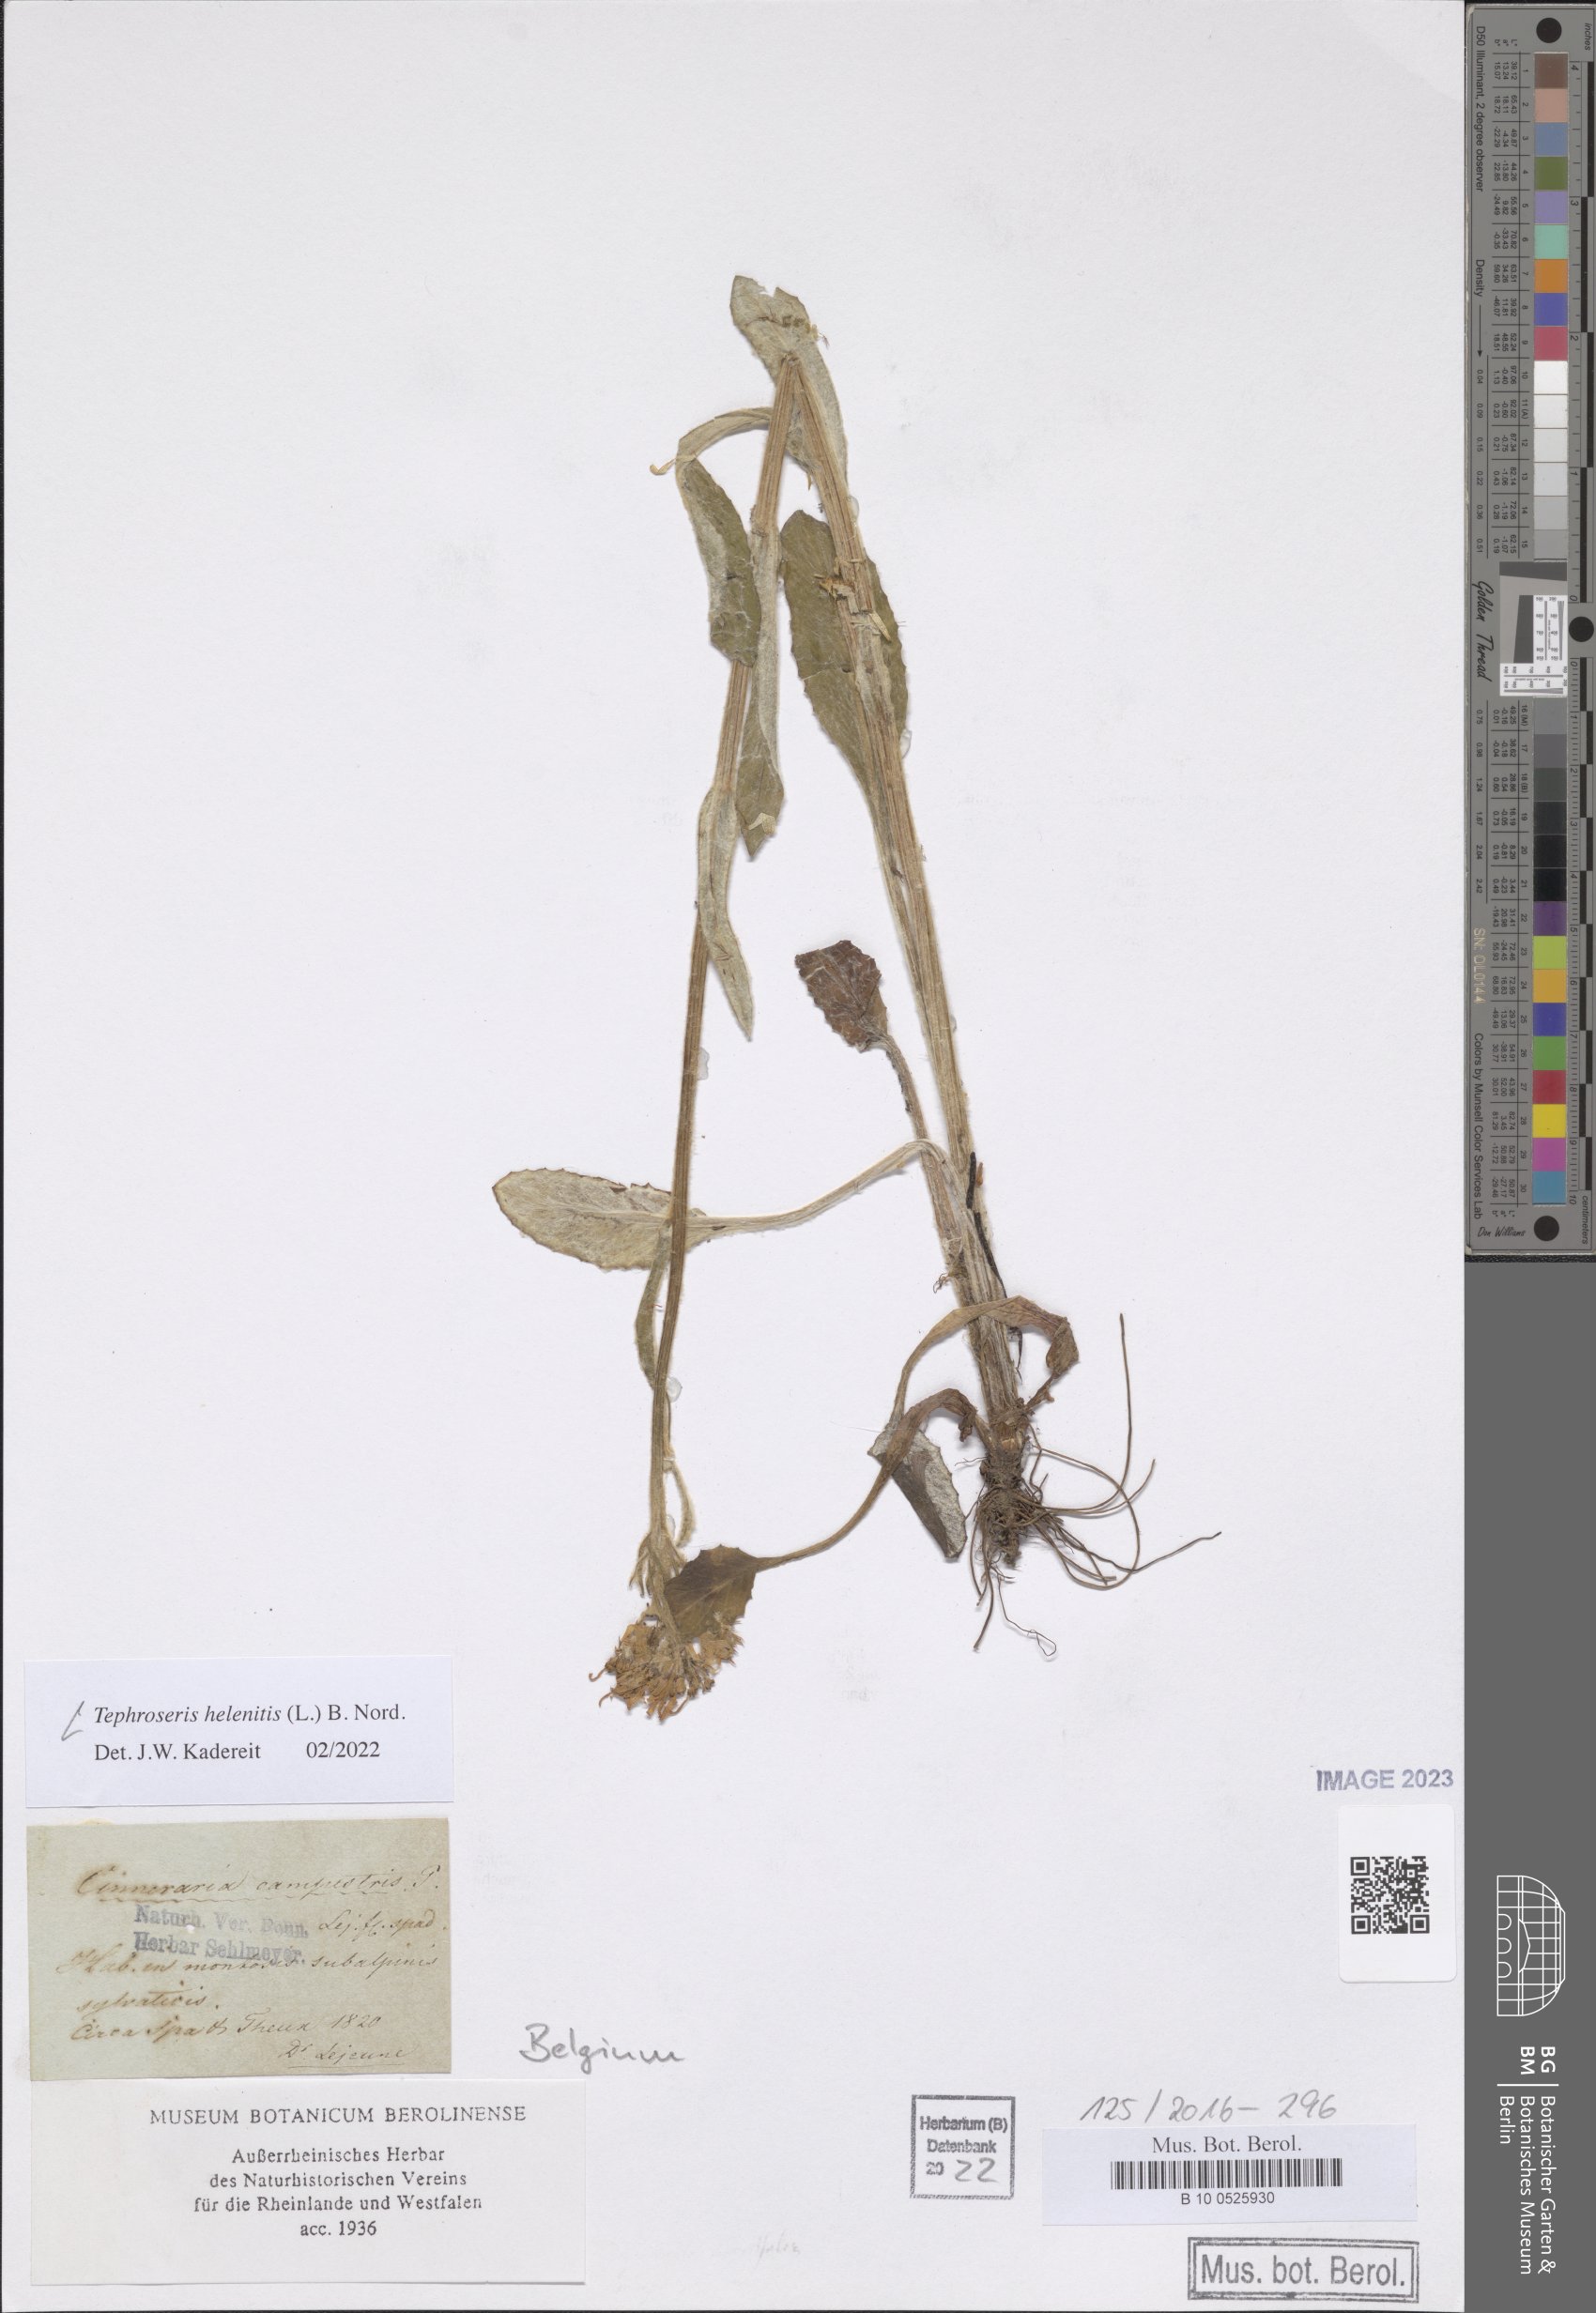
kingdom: Plantae
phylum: Tracheophyta
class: Magnoliopsida
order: Asterales
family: Asteraceae
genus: Tephroseris
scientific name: Tephroseris helenitis
